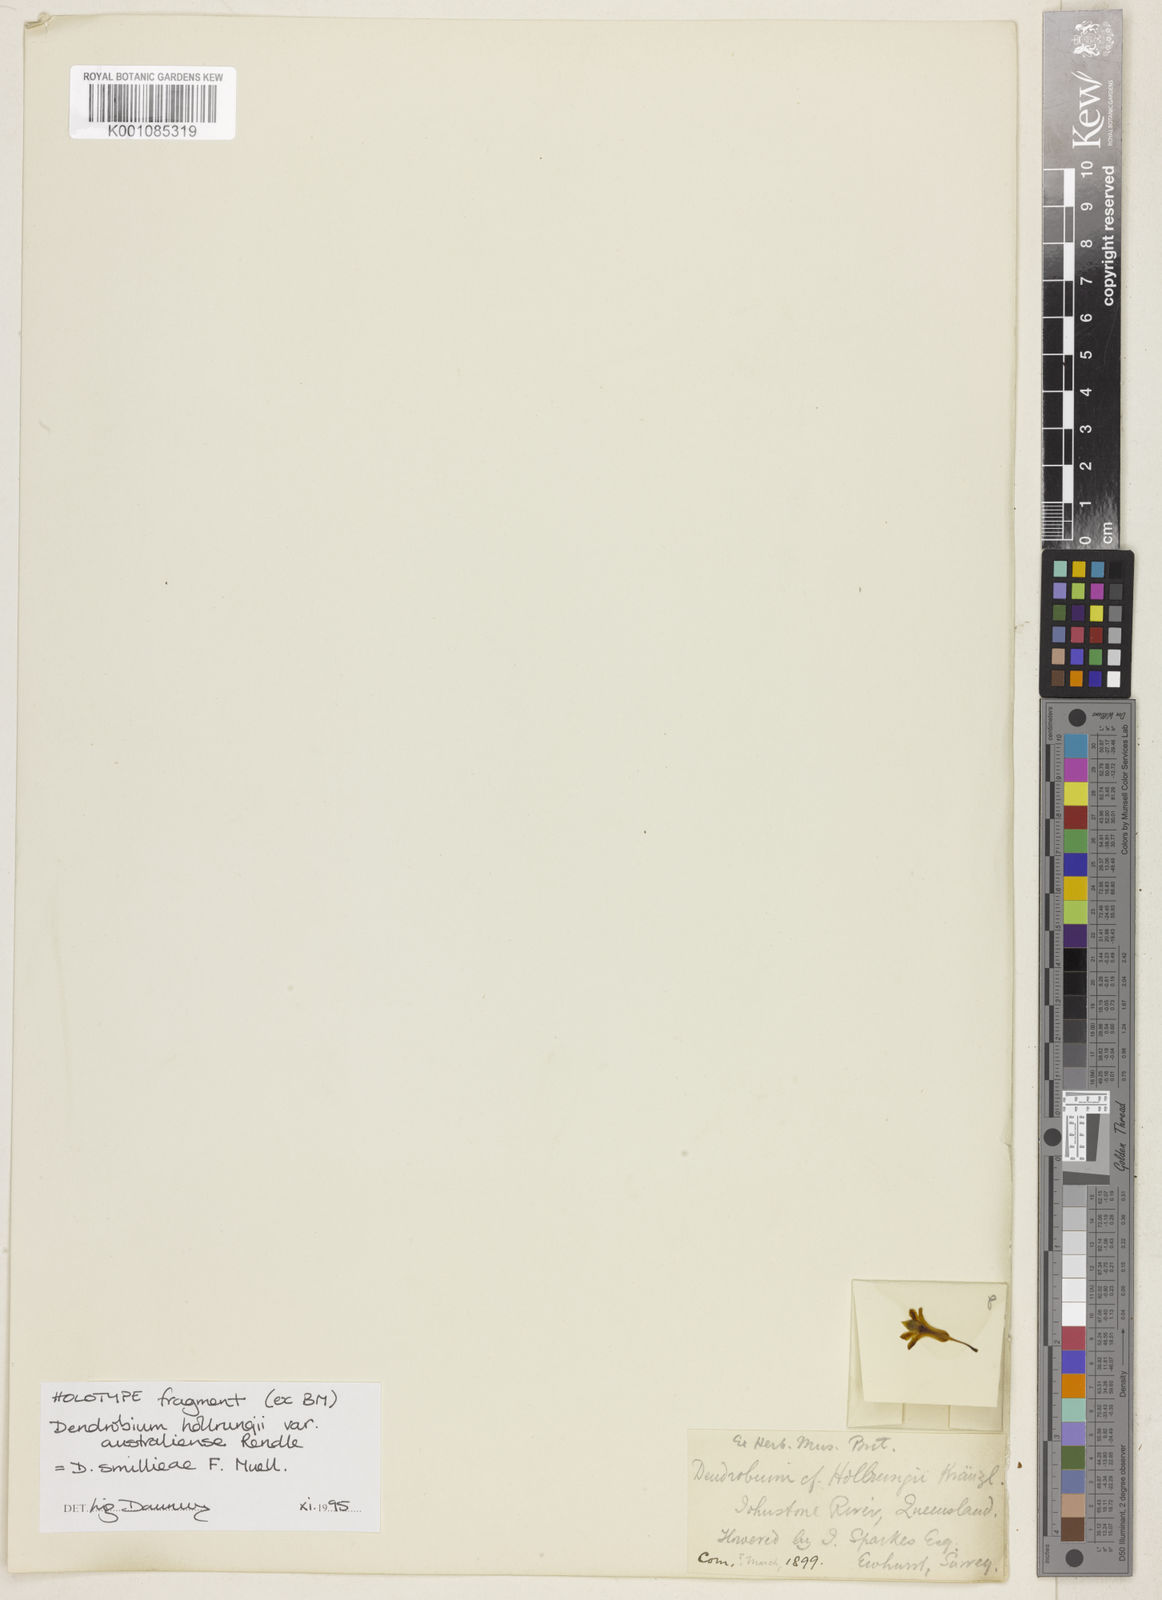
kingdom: Plantae
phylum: Tracheophyta
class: Liliopsida
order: Asparagales
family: Orchidaceae
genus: Dendrobium
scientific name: Dendrobium smillieae
